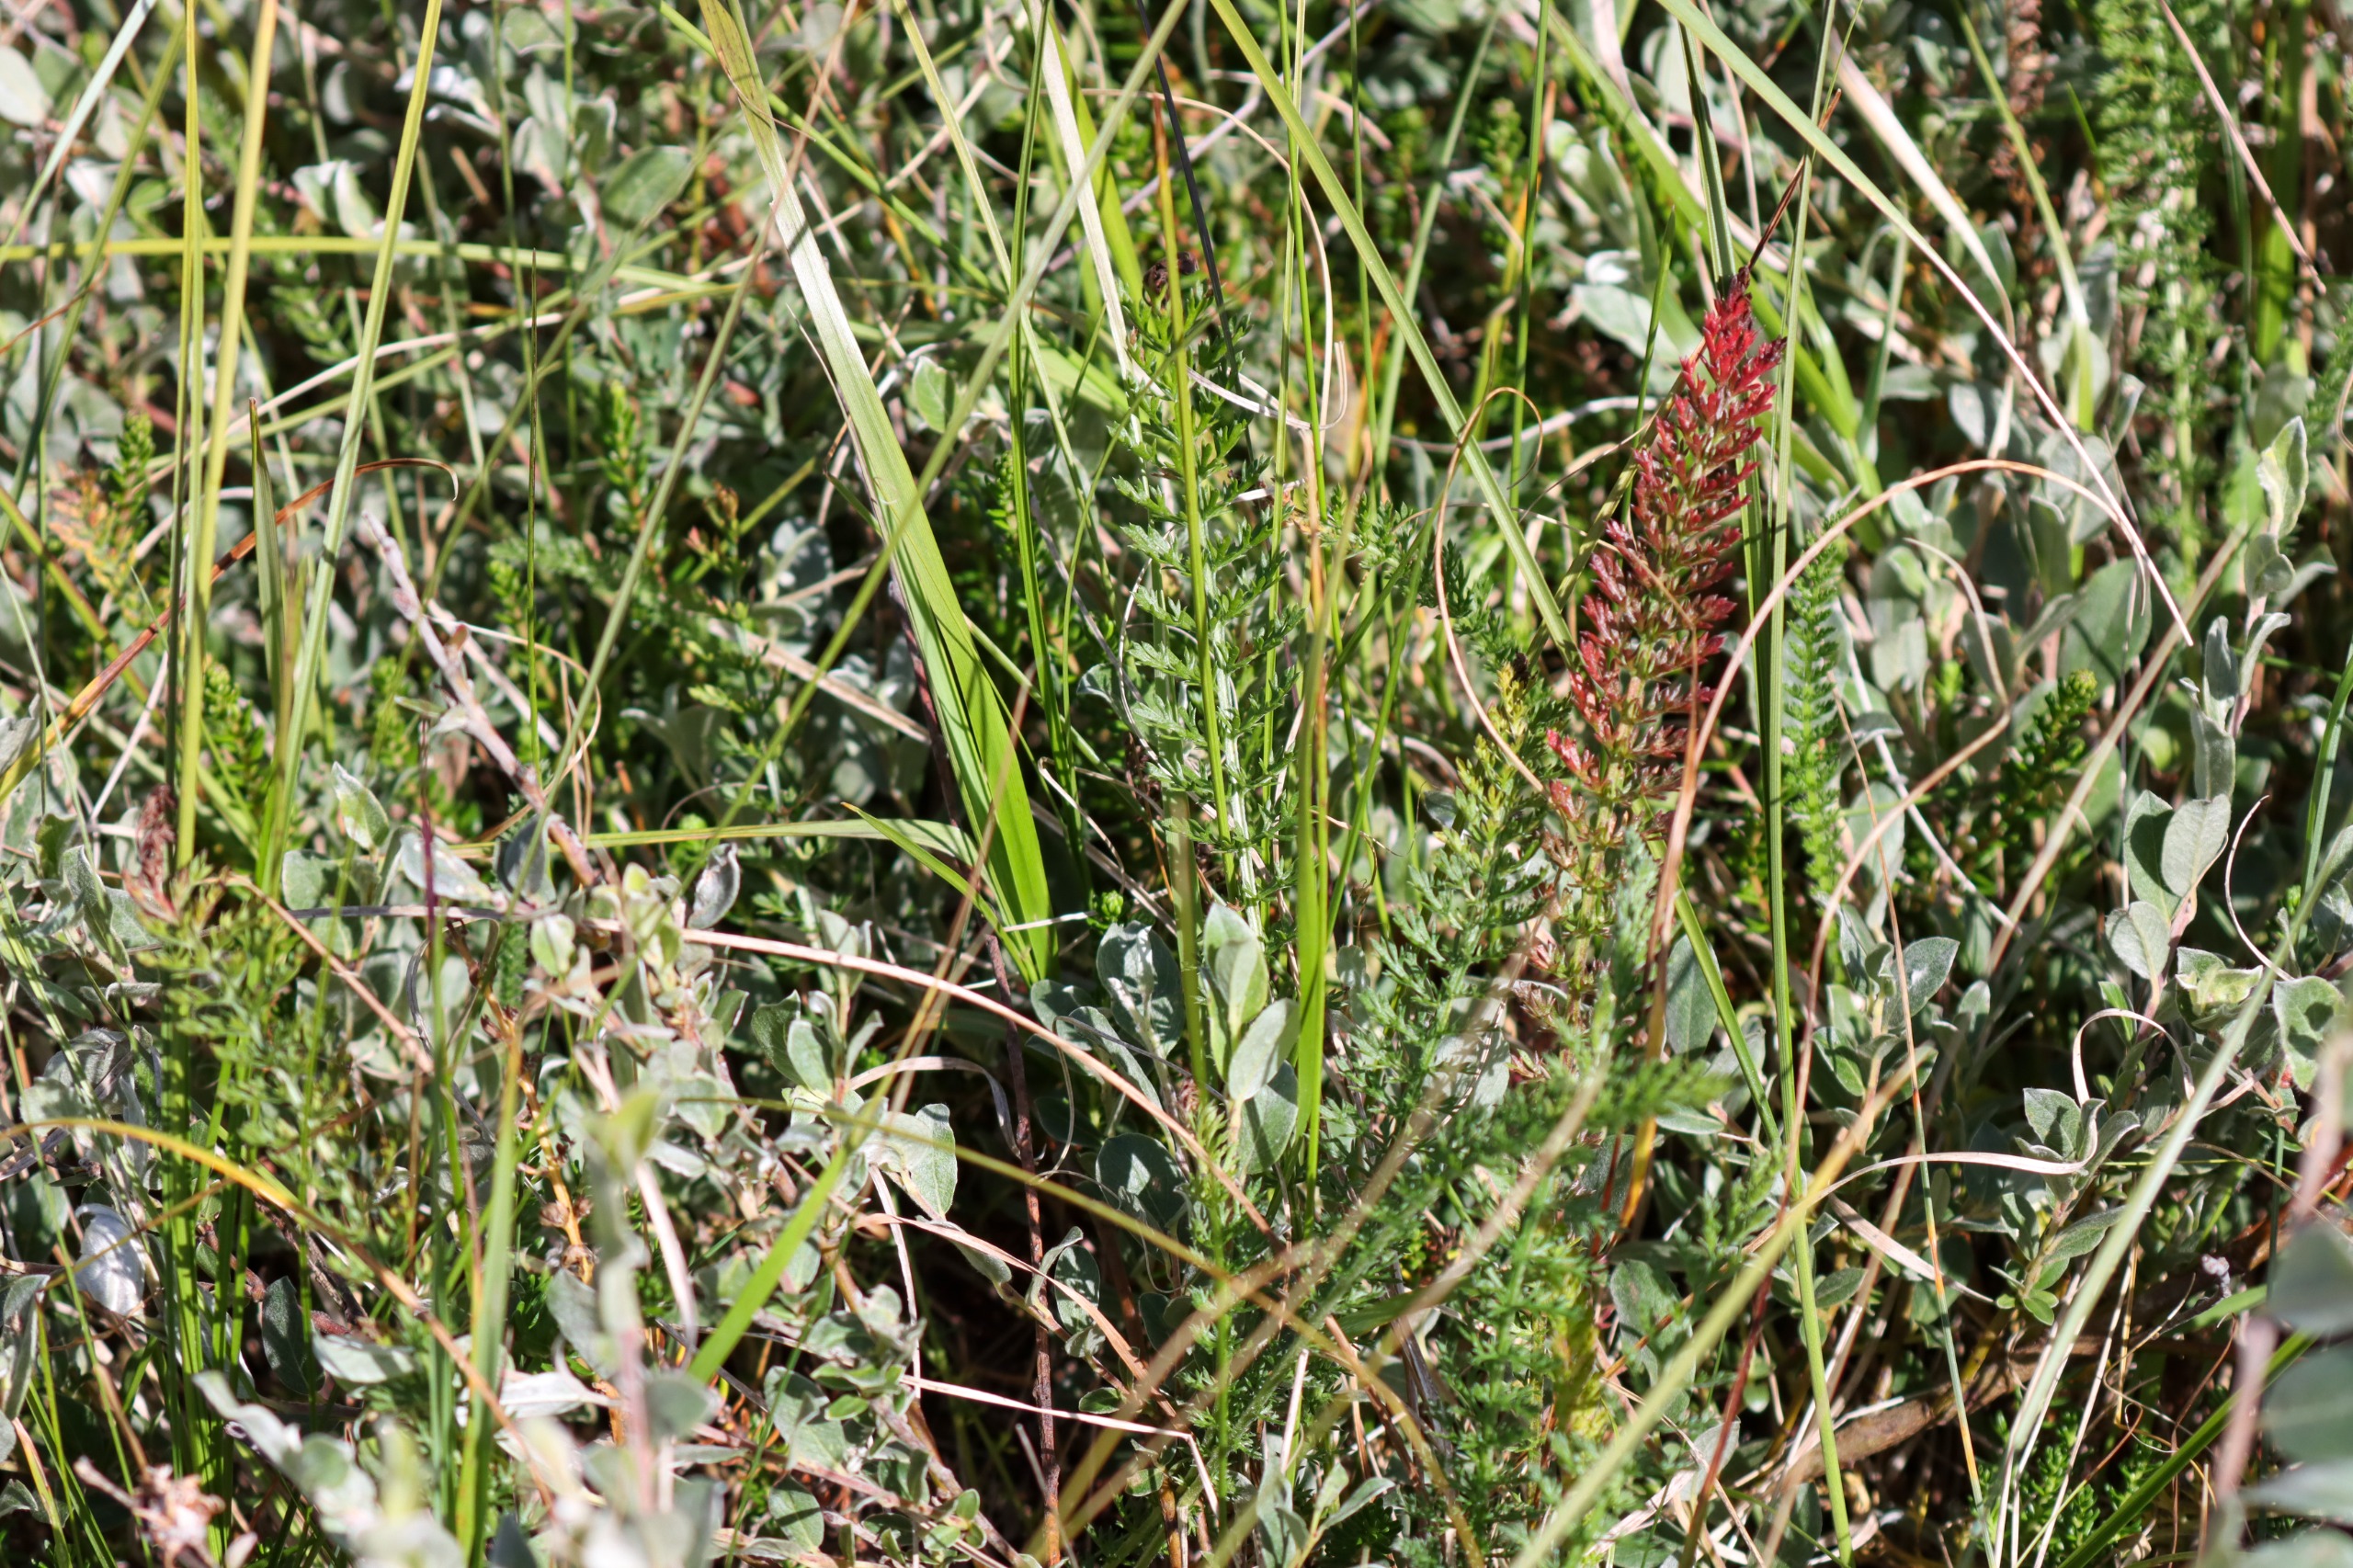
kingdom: Plantae
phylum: Tracheophyta
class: Magnoliopsida
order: Asterales
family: Asteraceae
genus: Achillea
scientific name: Achillea millefolium
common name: Almindelig røllike
